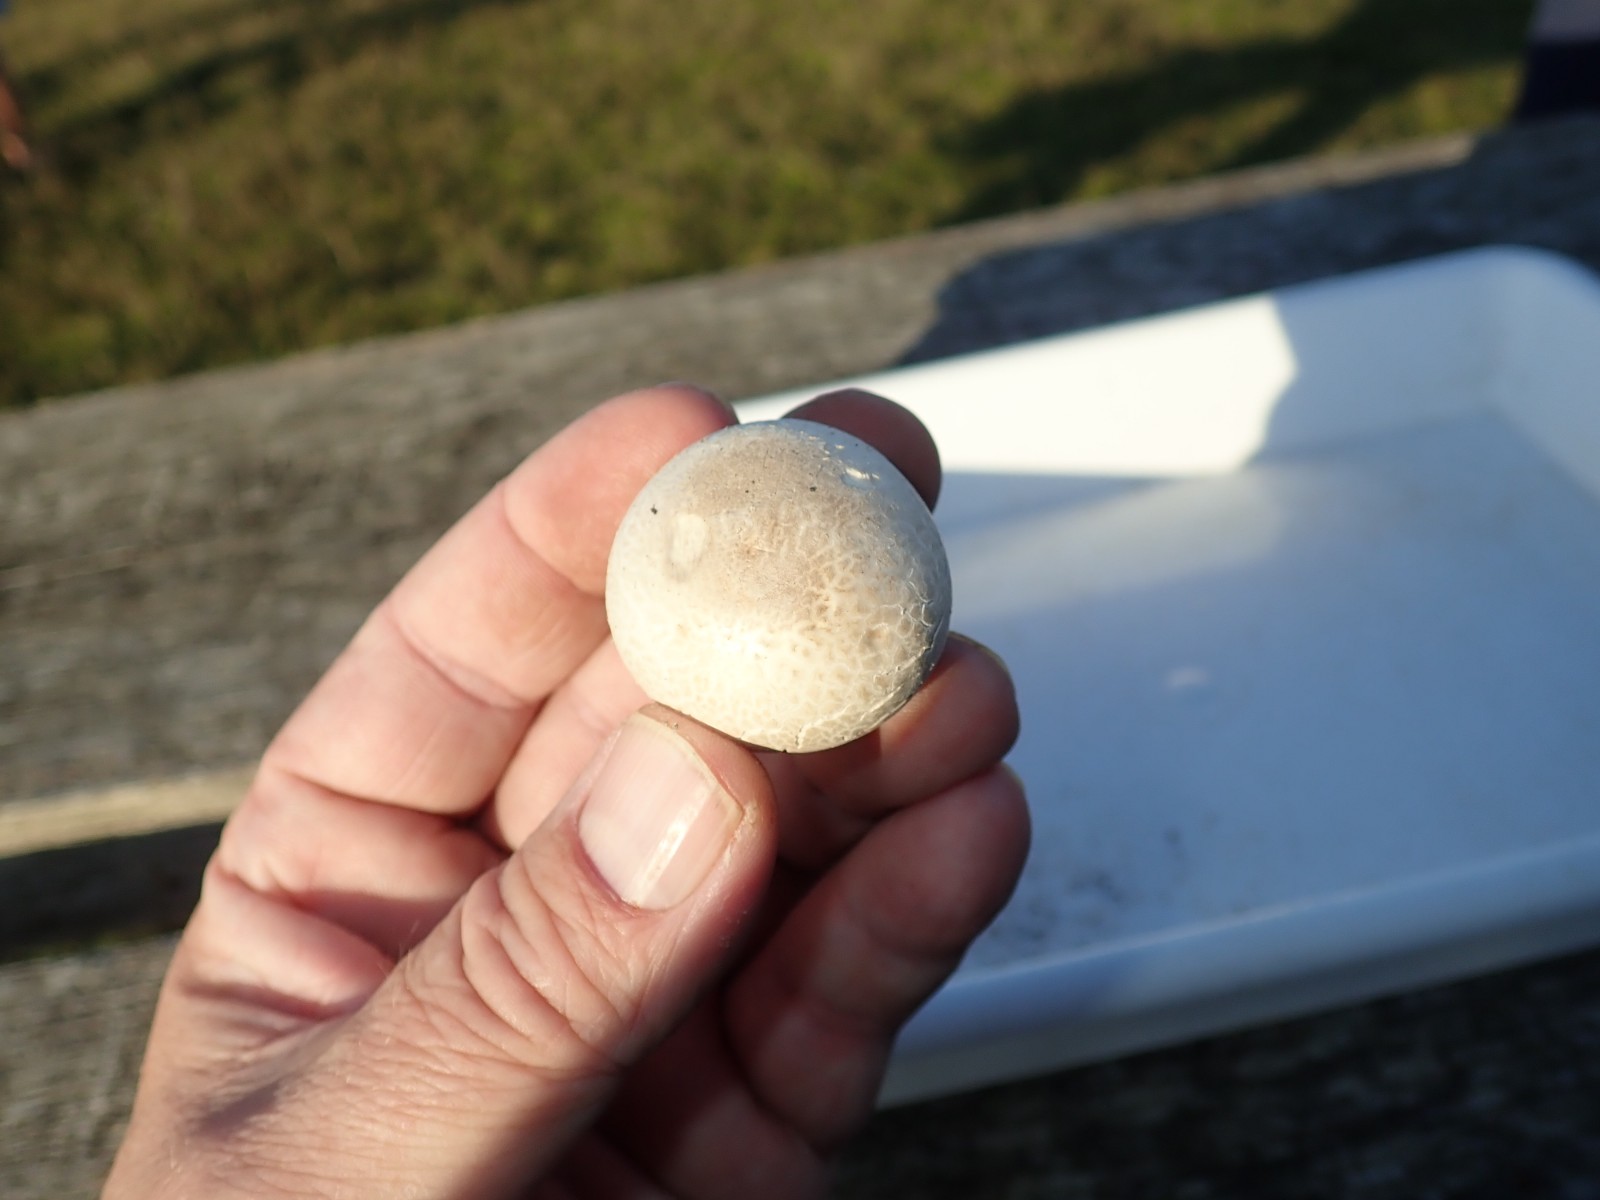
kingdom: Fungi
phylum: Basidiomycota
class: Agaricomycetes
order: Agaricales
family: Lycoperdaceae
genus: Bovista
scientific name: Bovista
